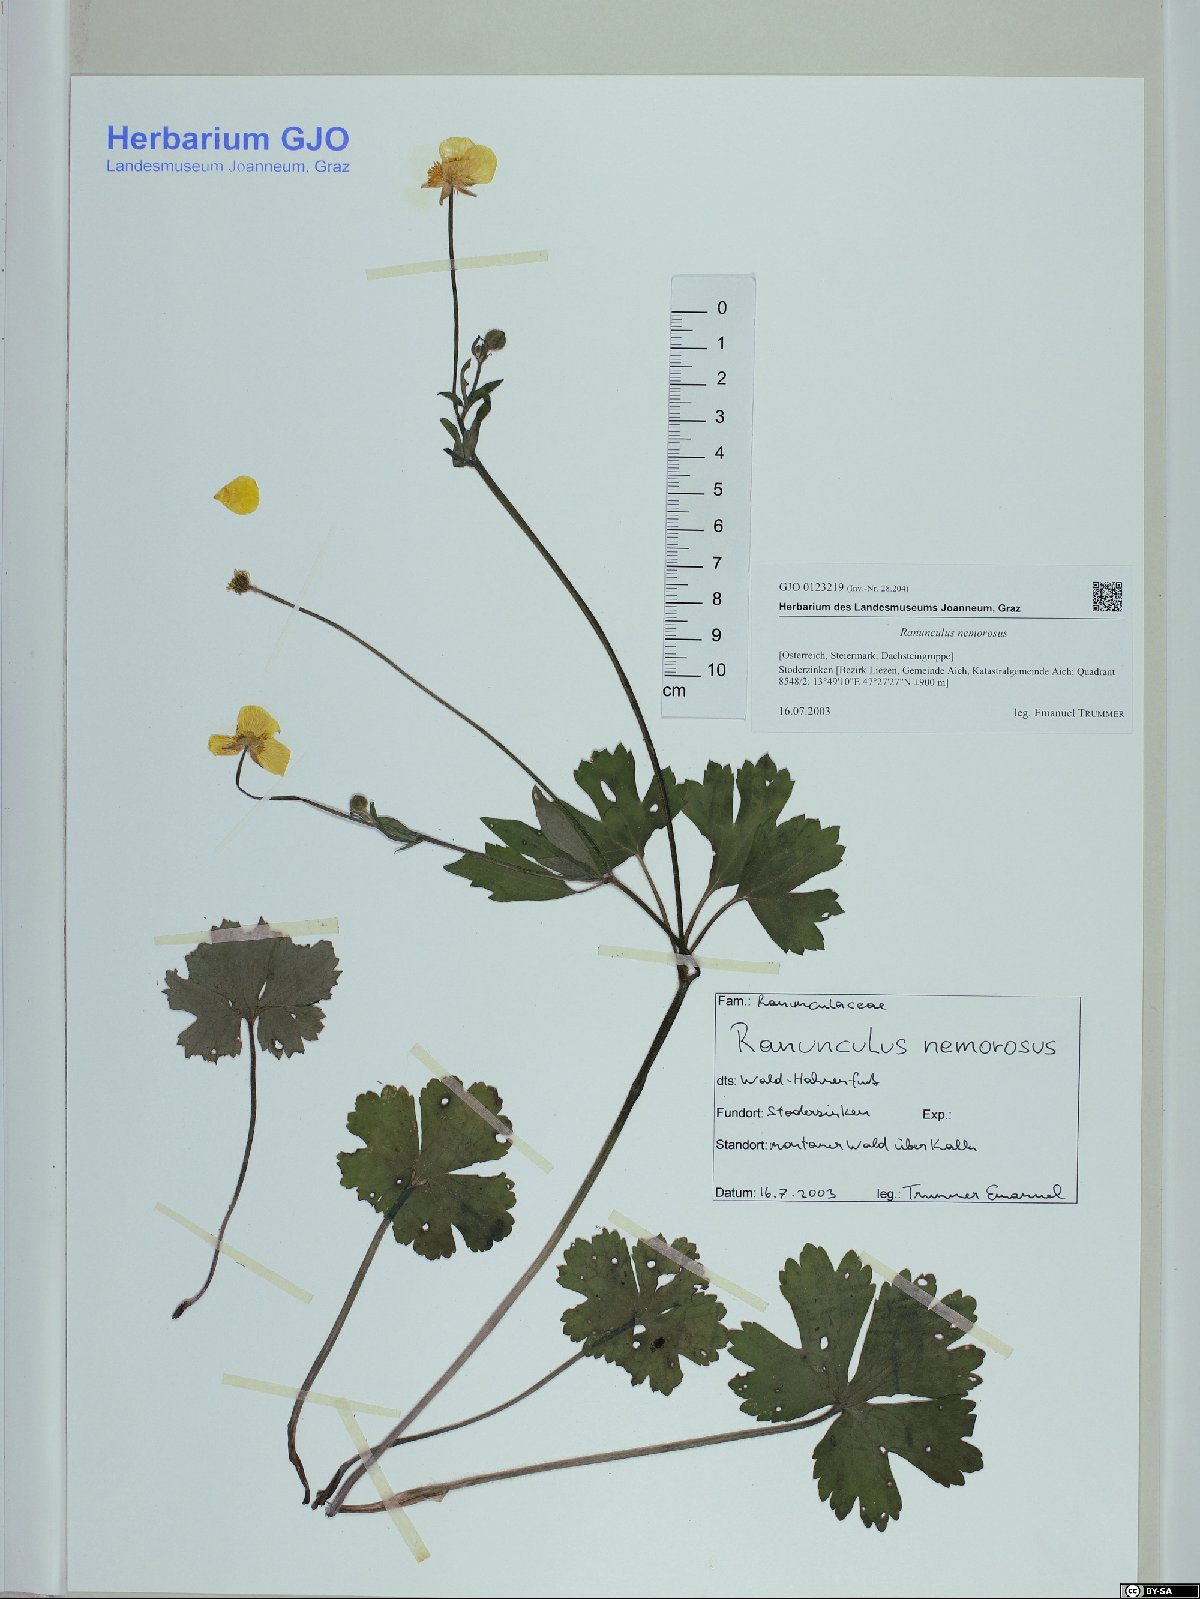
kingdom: Plantae
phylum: Tracheophyta
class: Magnoliopsida
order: Ranunculales
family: Ranunculaceae
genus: Ranunculus
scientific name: Ranunculus polyanthemos
